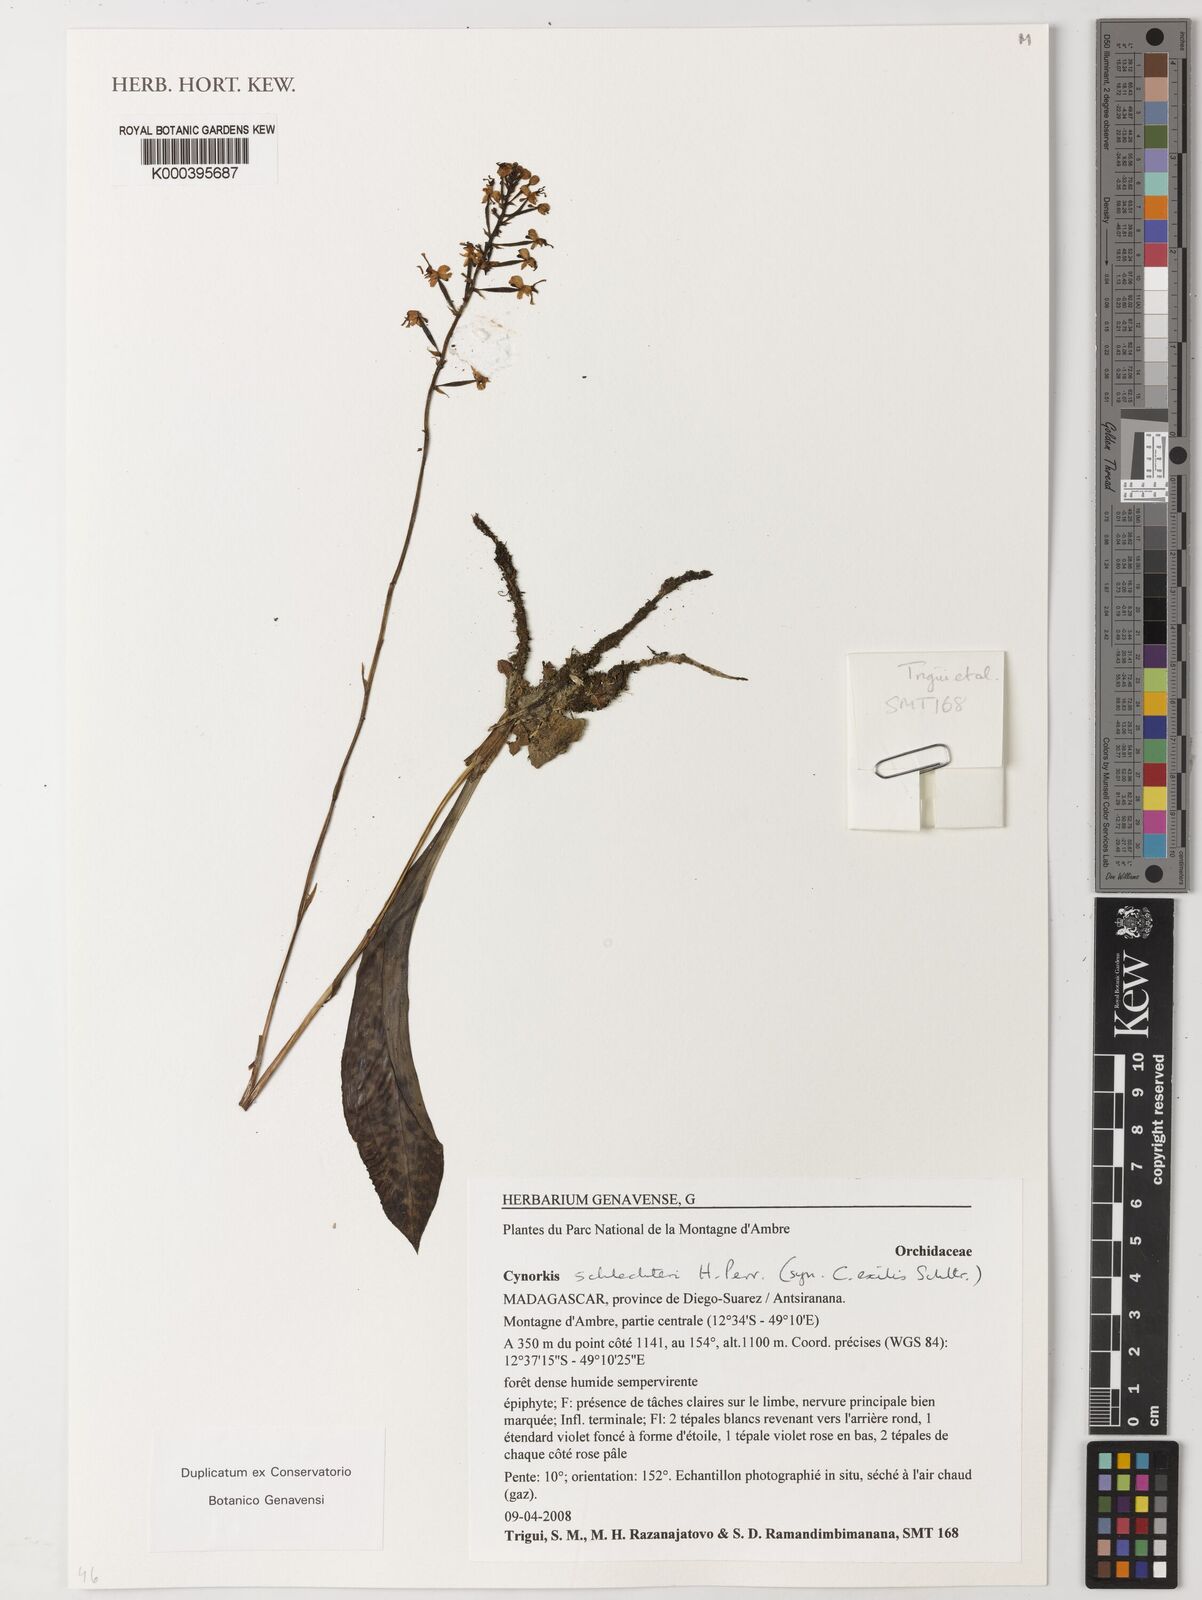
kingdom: Plantae
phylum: Tracheophyta
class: Liliopsida
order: Asparagales
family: Orchidaceae
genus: Cynorkis
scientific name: Cynorkis schlechteri
